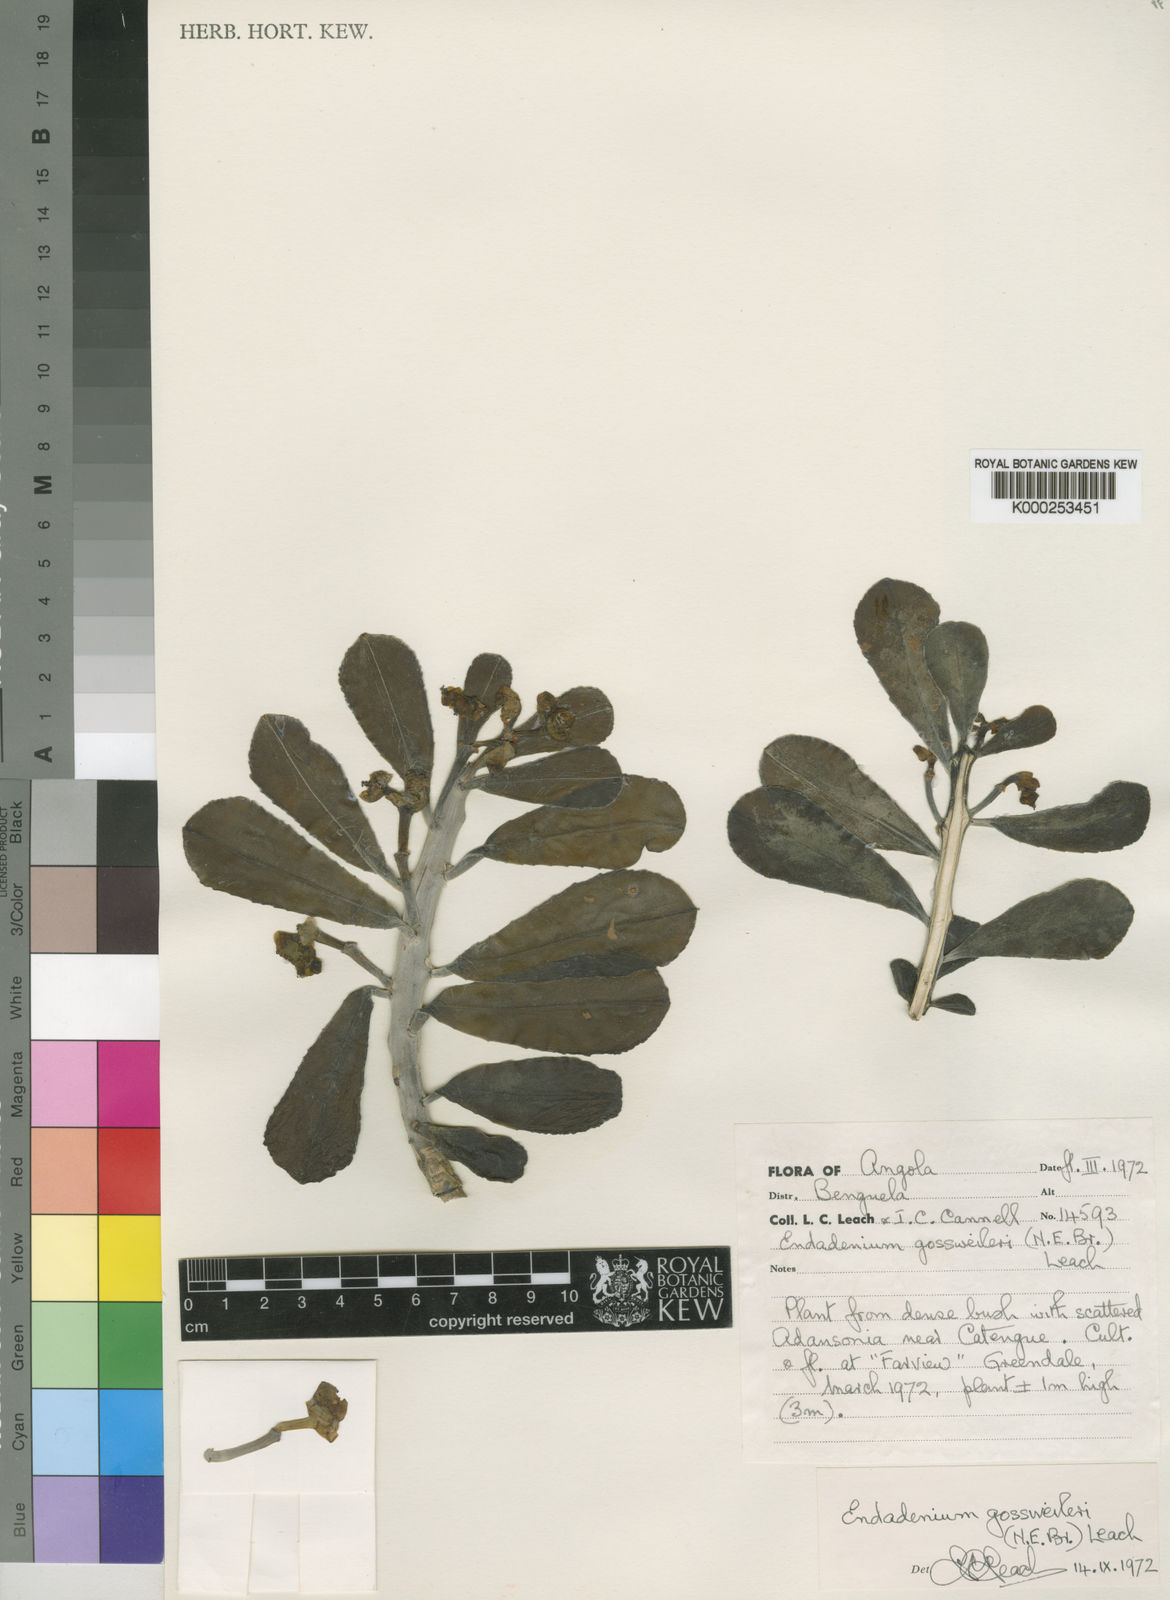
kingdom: Plantae
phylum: Tracheophyta
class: Magnoliopsida
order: Malpighiales
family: Euphorbiaceae
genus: Euphorbia
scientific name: Euphorbia neogossweileri
